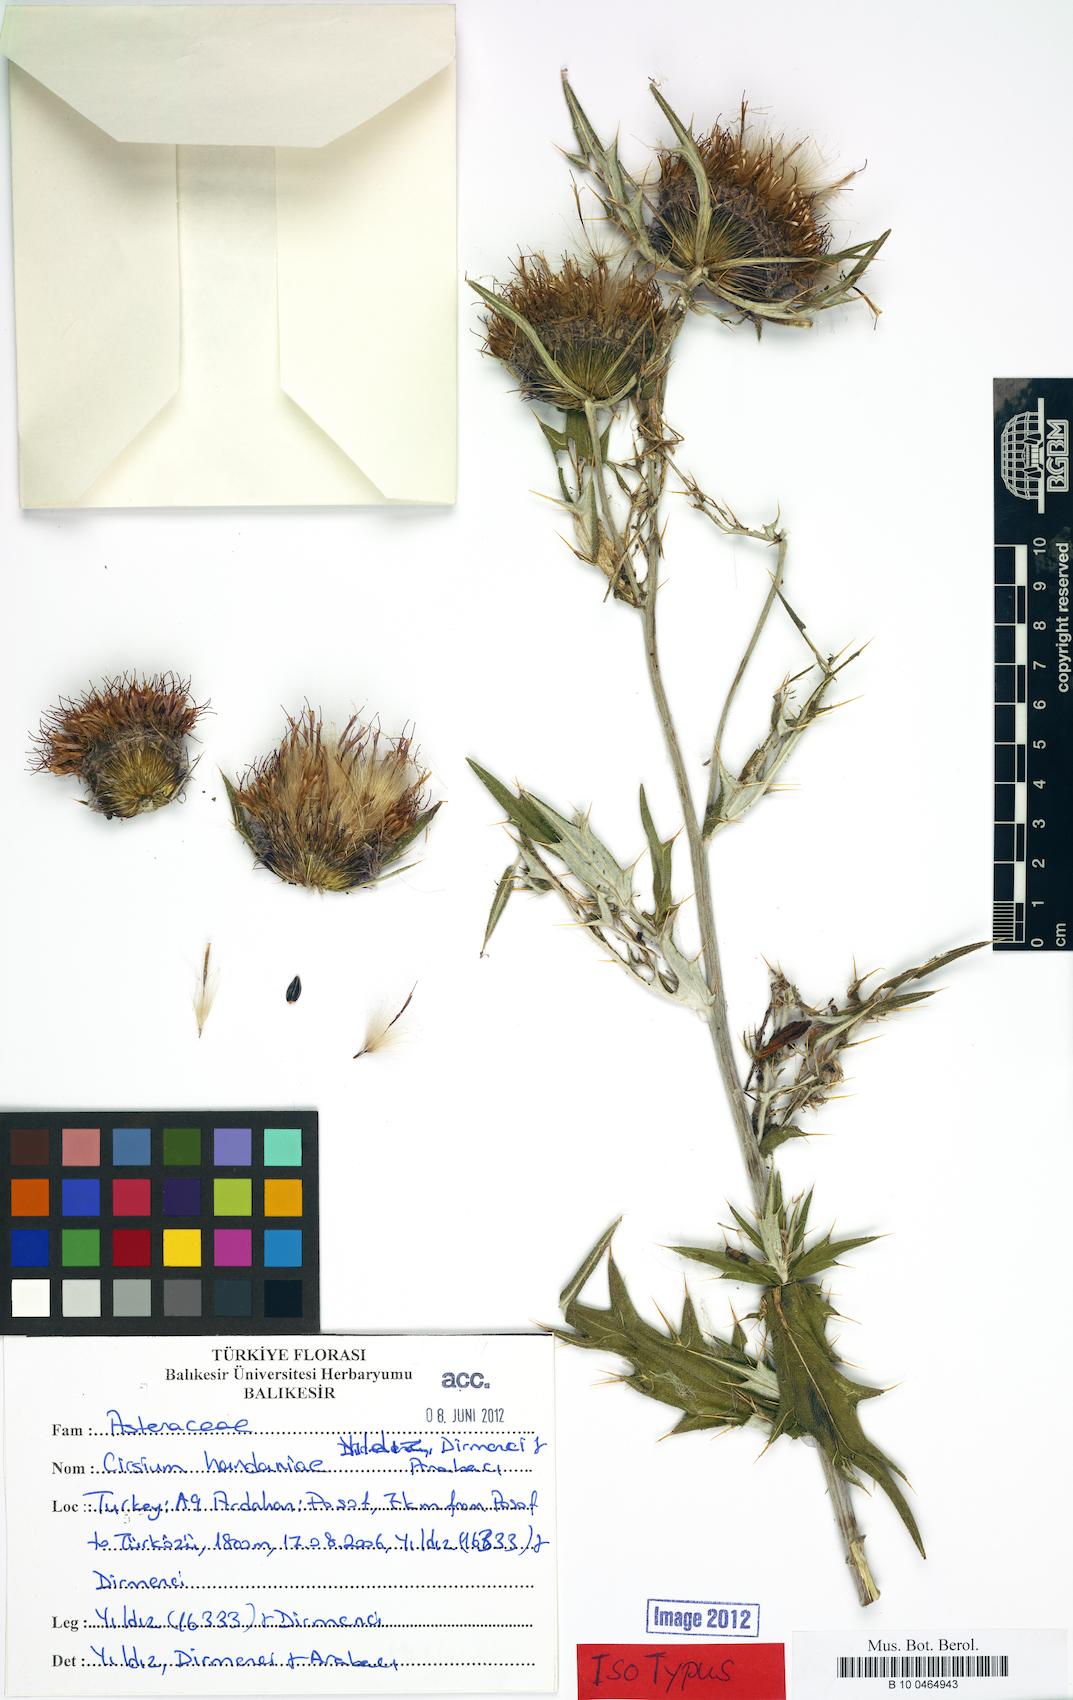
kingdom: Plantae
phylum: Tracheophyta
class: Magnoliopsida
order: Asterales
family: Asteraceae
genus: Lophiolepis
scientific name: Lophiolepis handaniae
